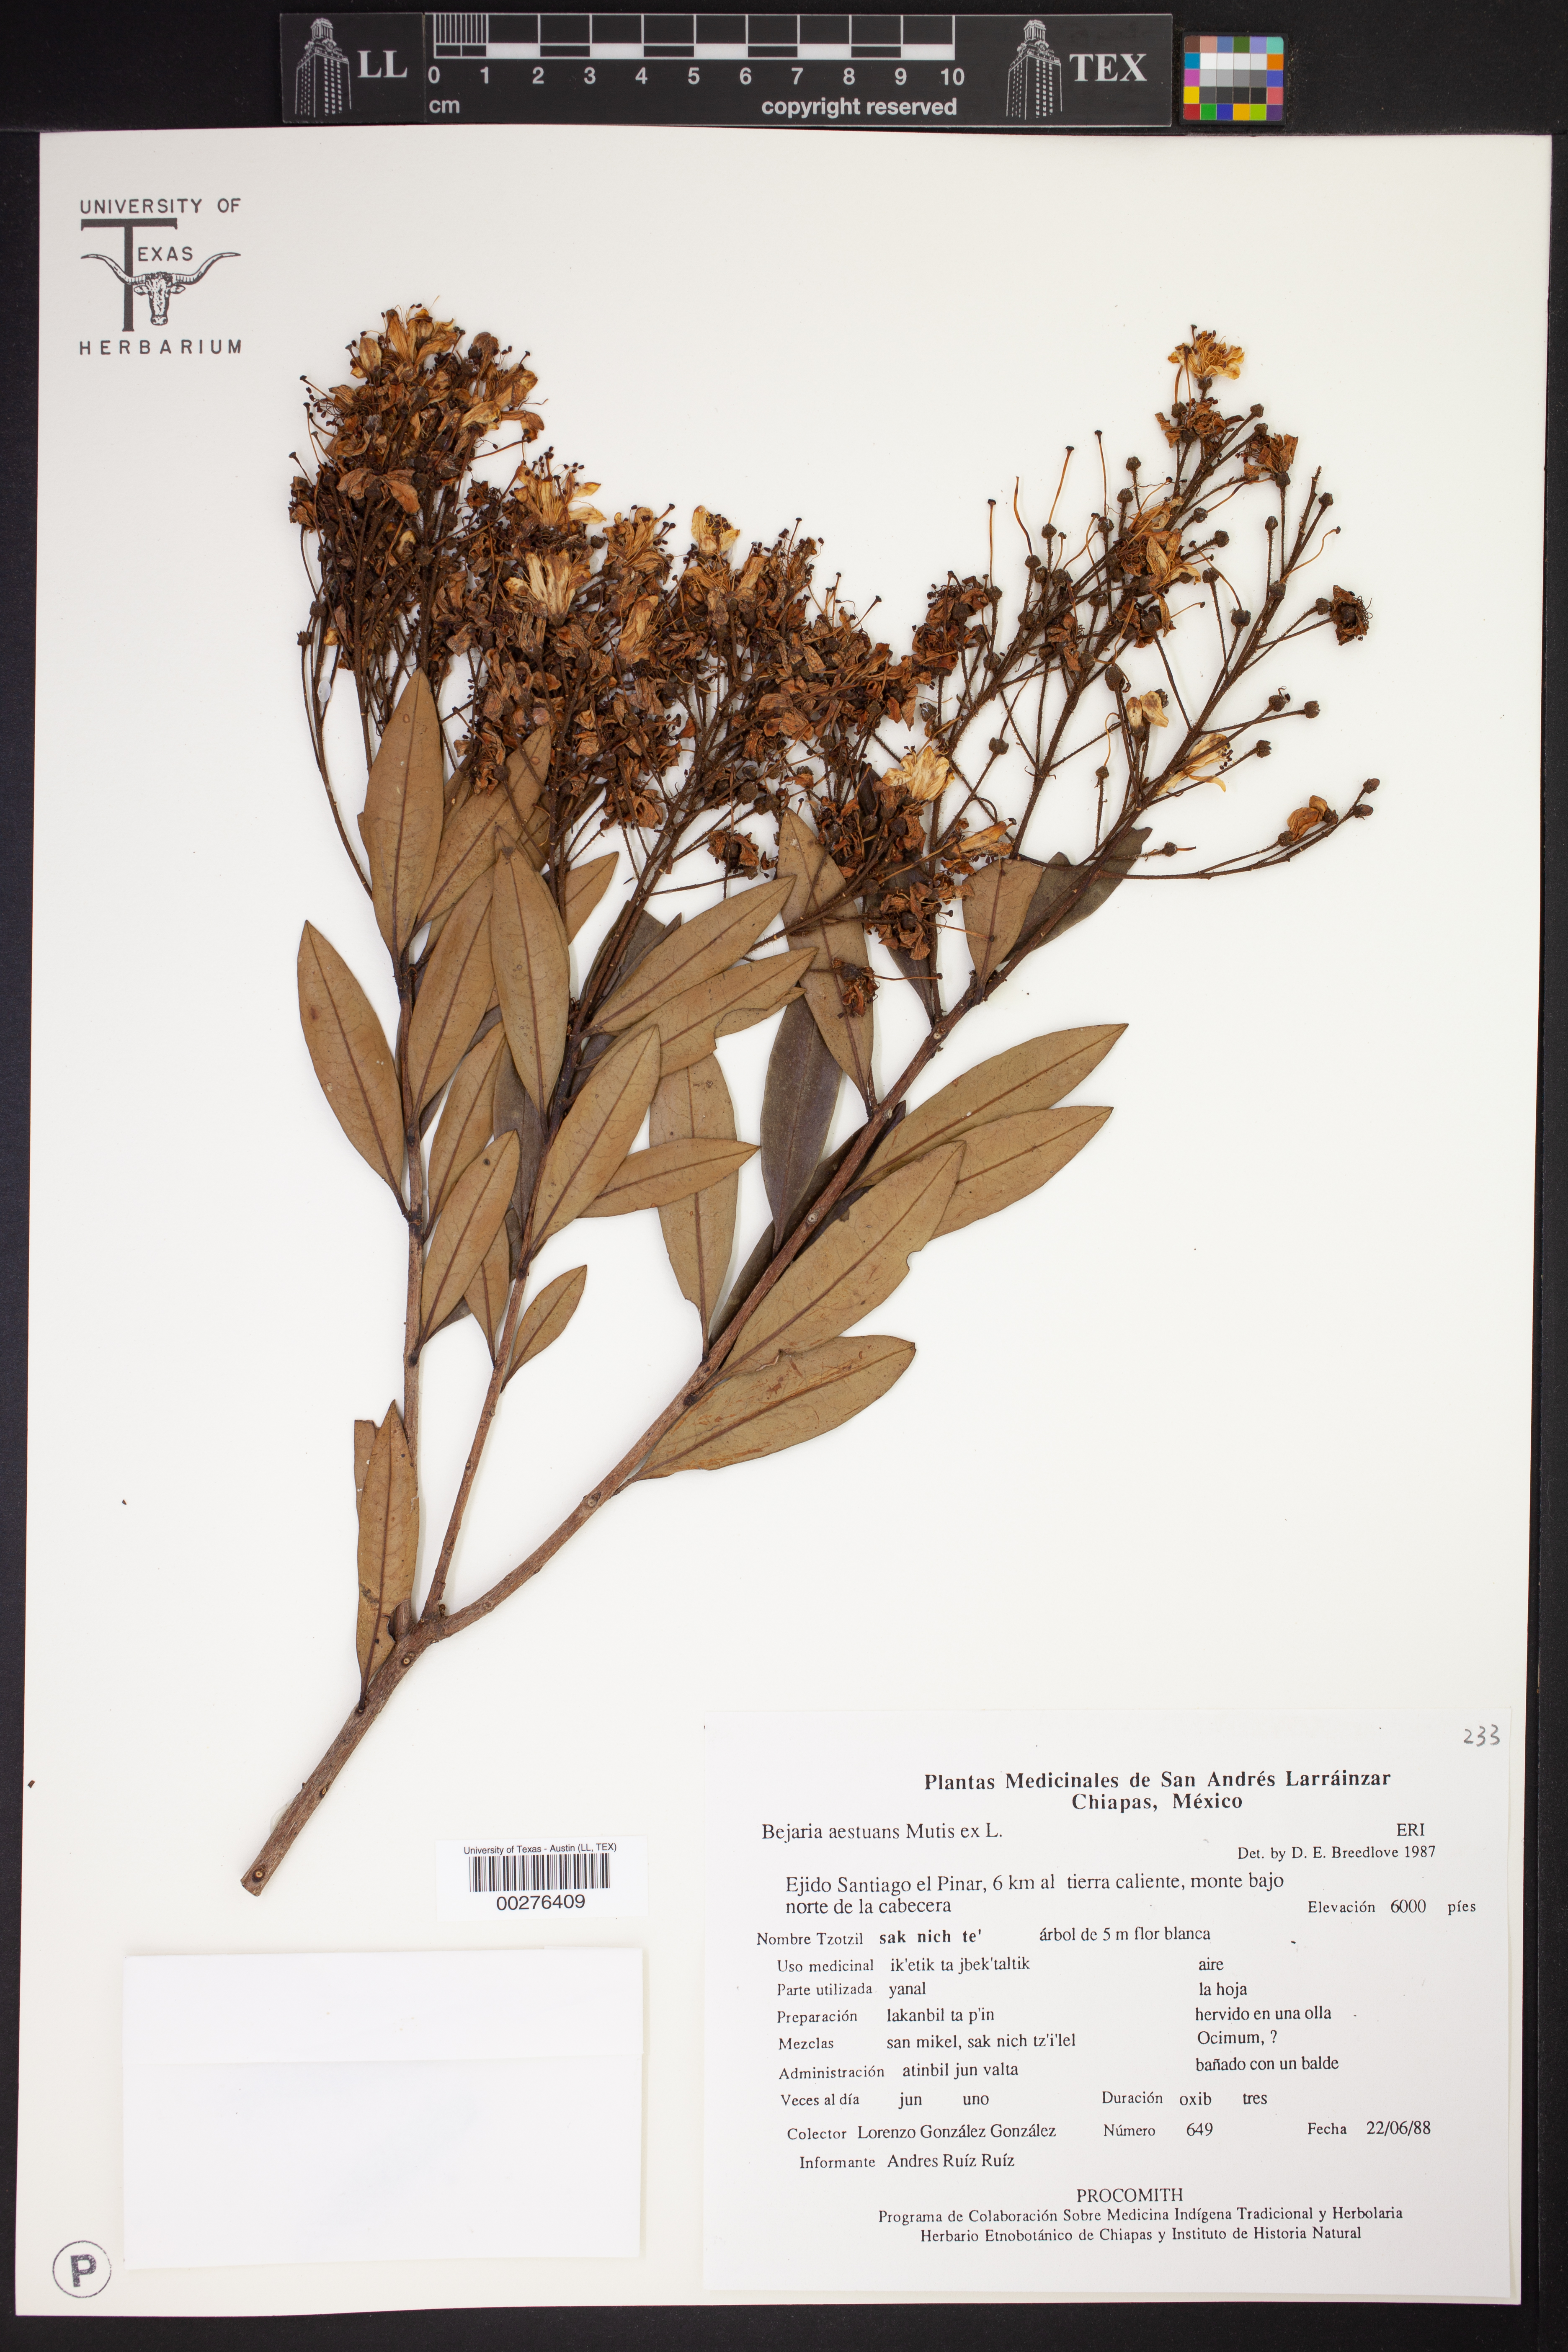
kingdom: Plantae
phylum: Tracheophyta
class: Magnoliopsida
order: Ericales
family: Ericaceae
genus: Bejaria
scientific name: Bejaria aestuans
